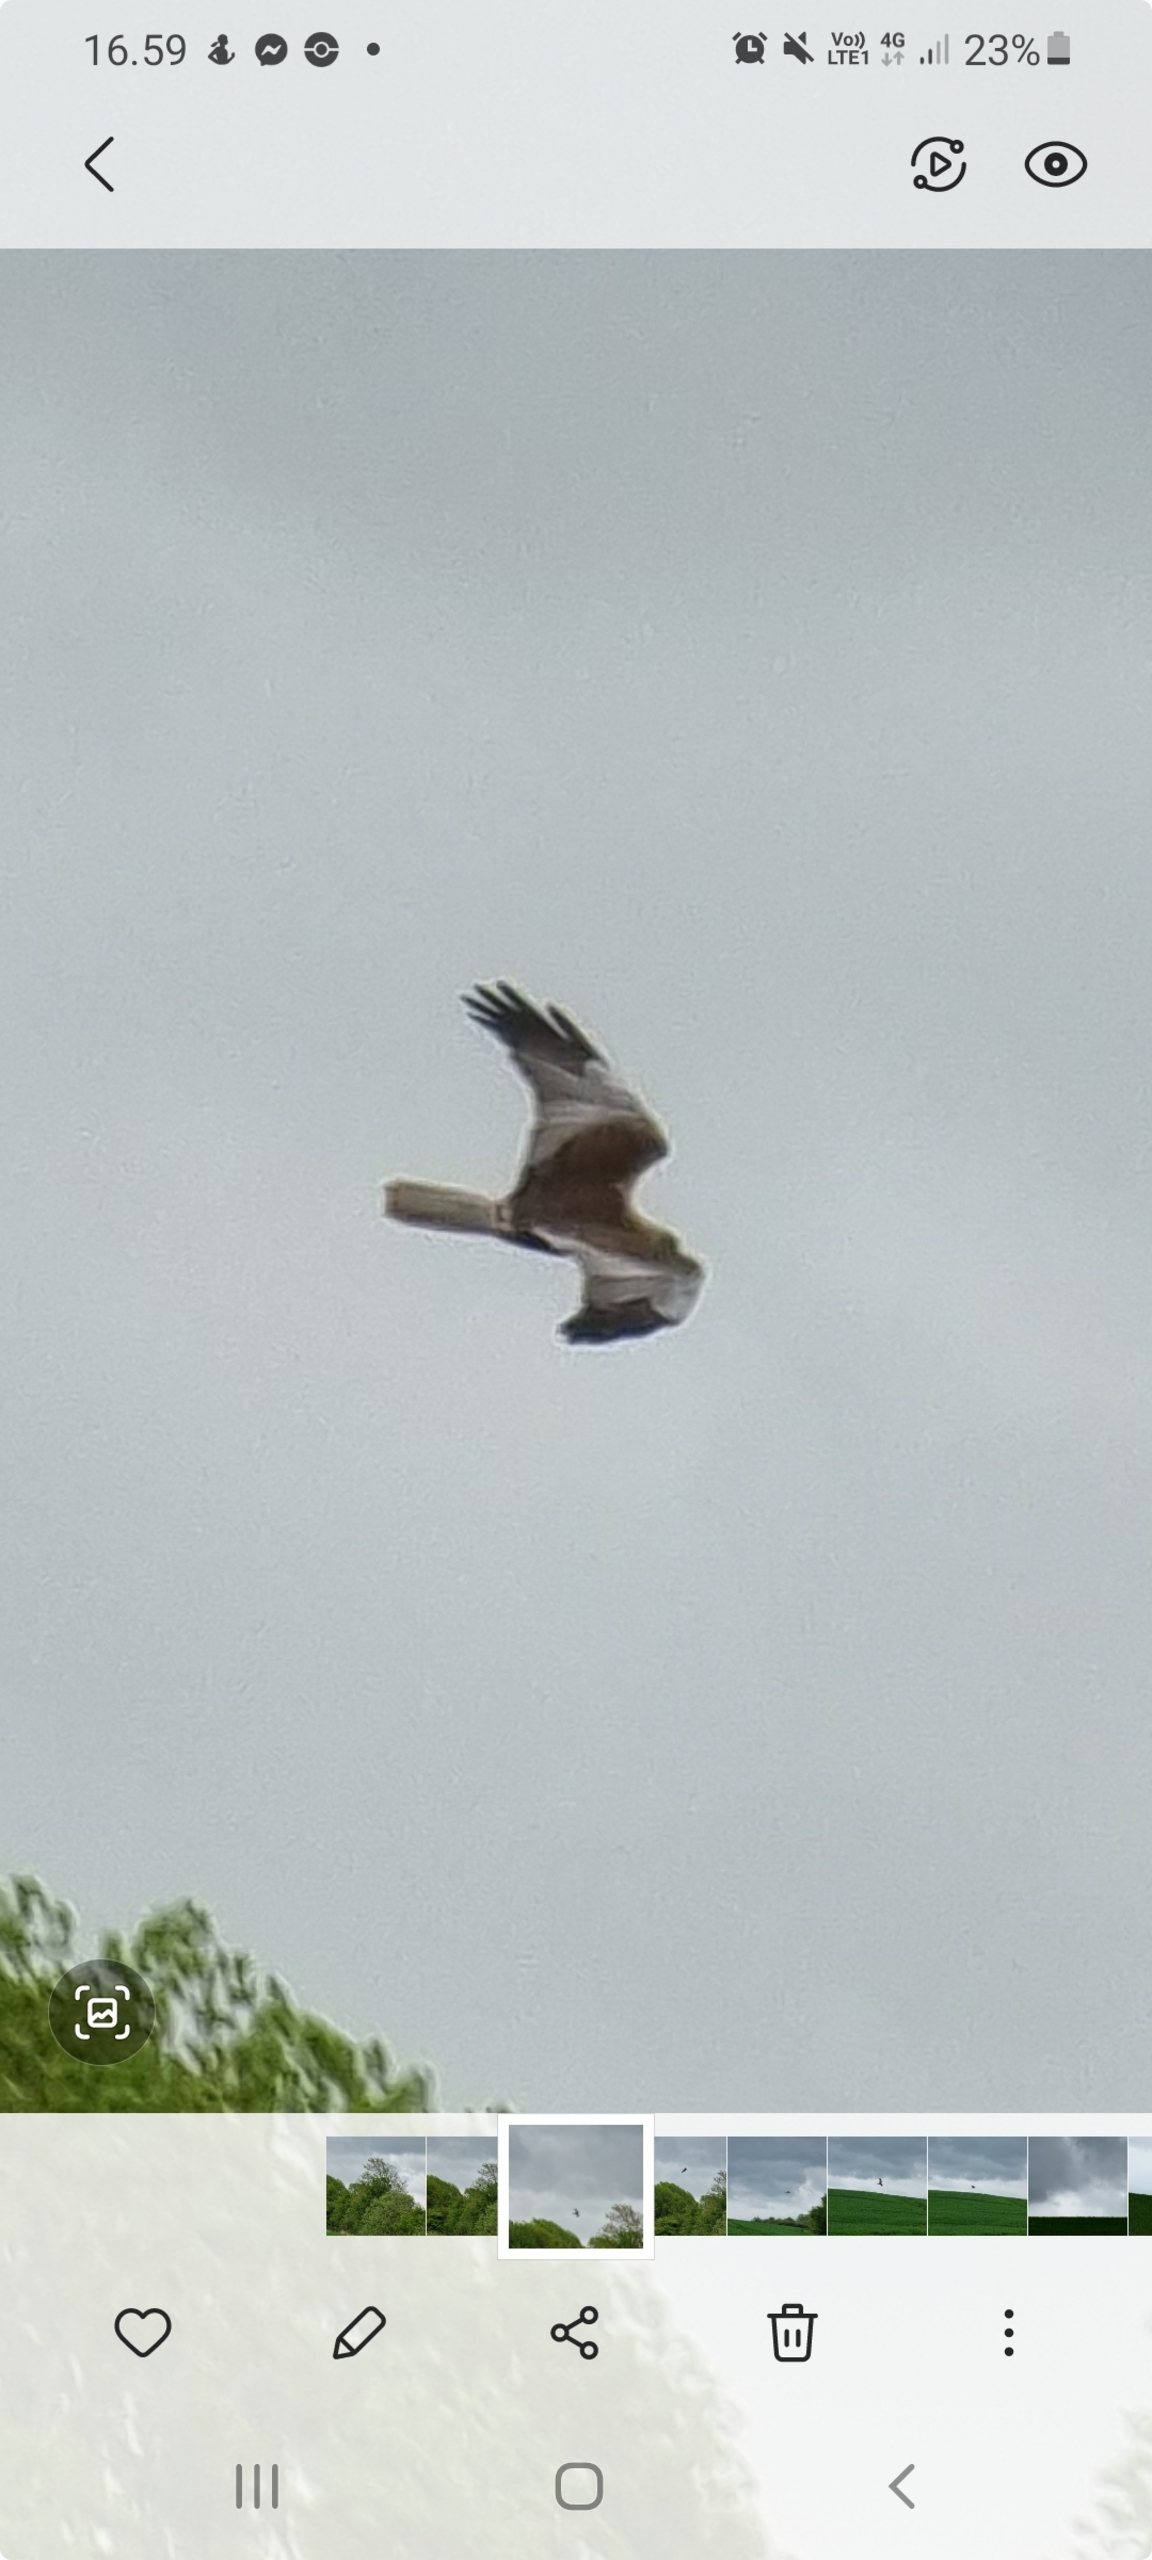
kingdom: Animalia
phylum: Chordata
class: Aves
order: Accipitriformes
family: Accipitridae
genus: Circus
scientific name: Circus aeruginosus
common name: Rørhøg
